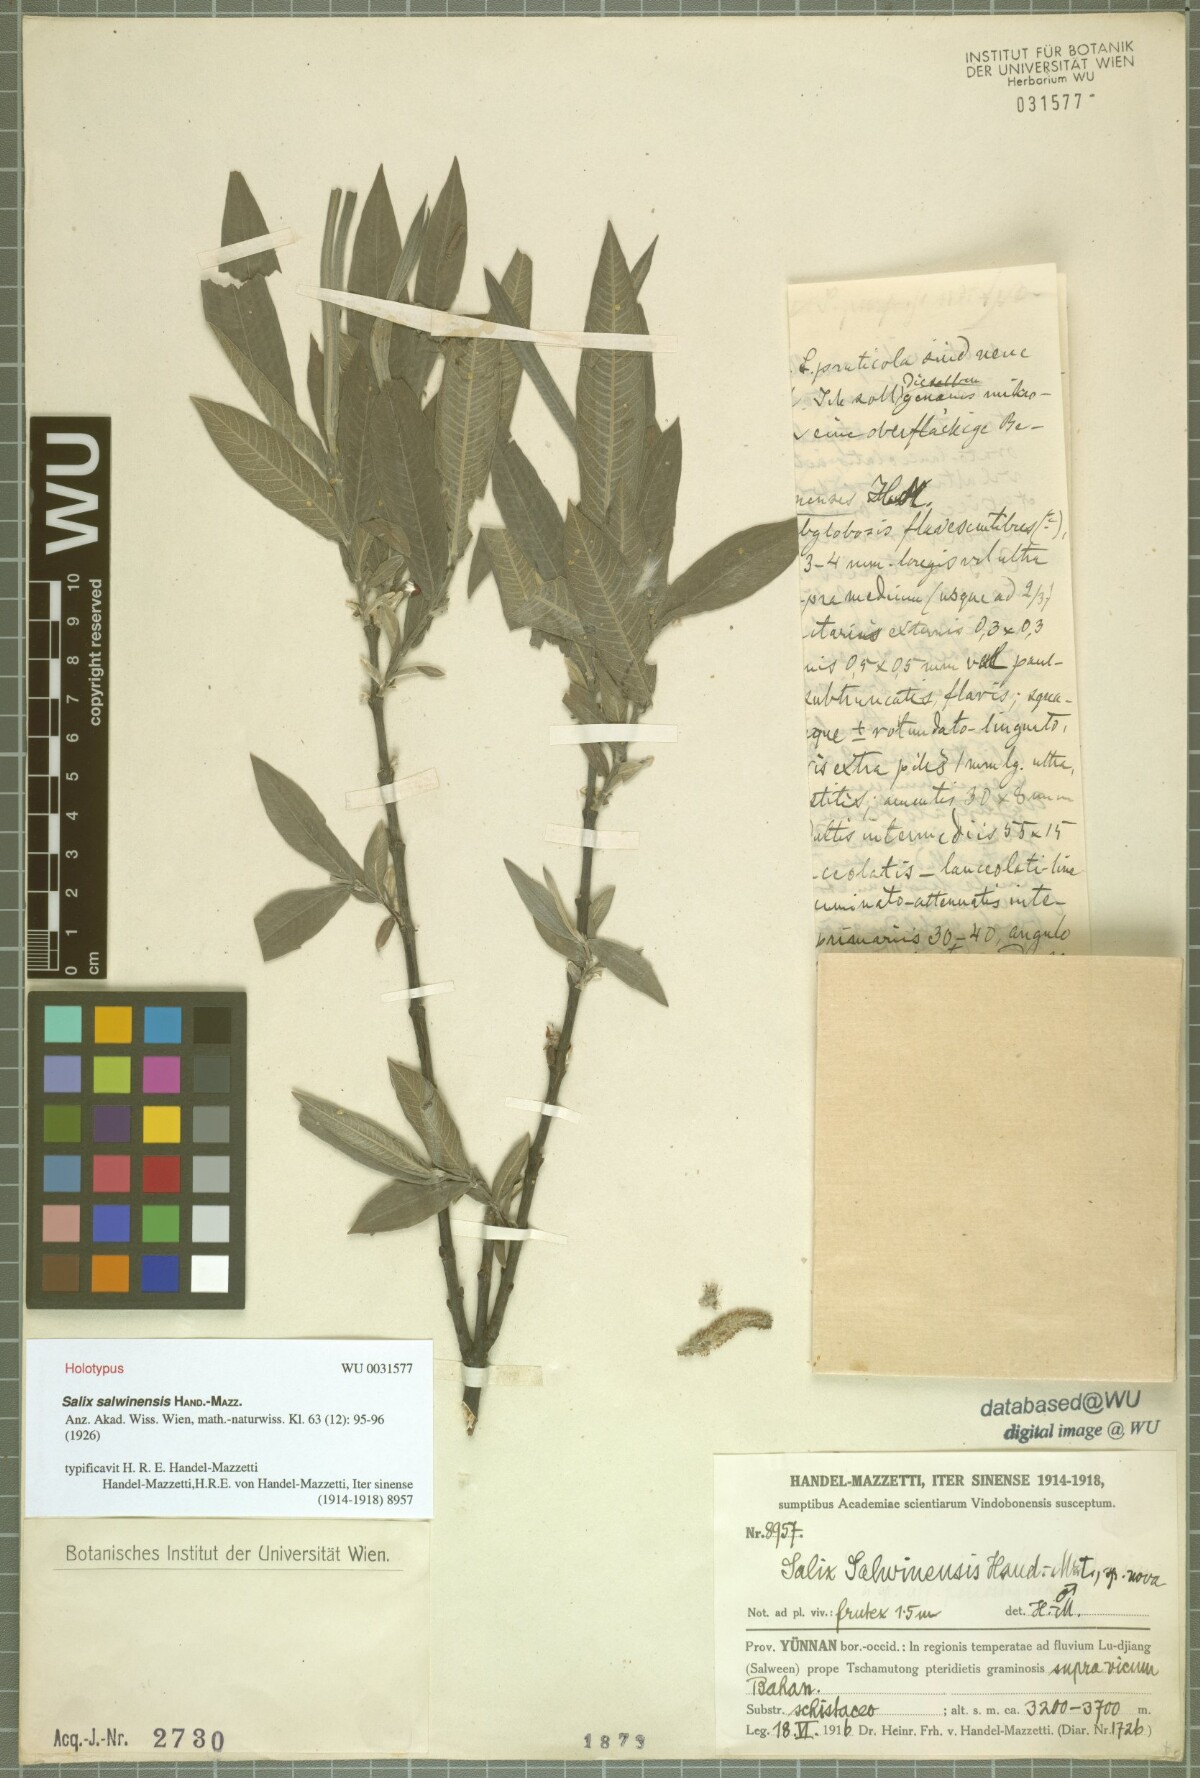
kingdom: Plantae
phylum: Tracheophyta
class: Magnoliopsida
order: Malpighiales
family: Salicaceae
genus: Salix
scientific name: Salix salwinensis
